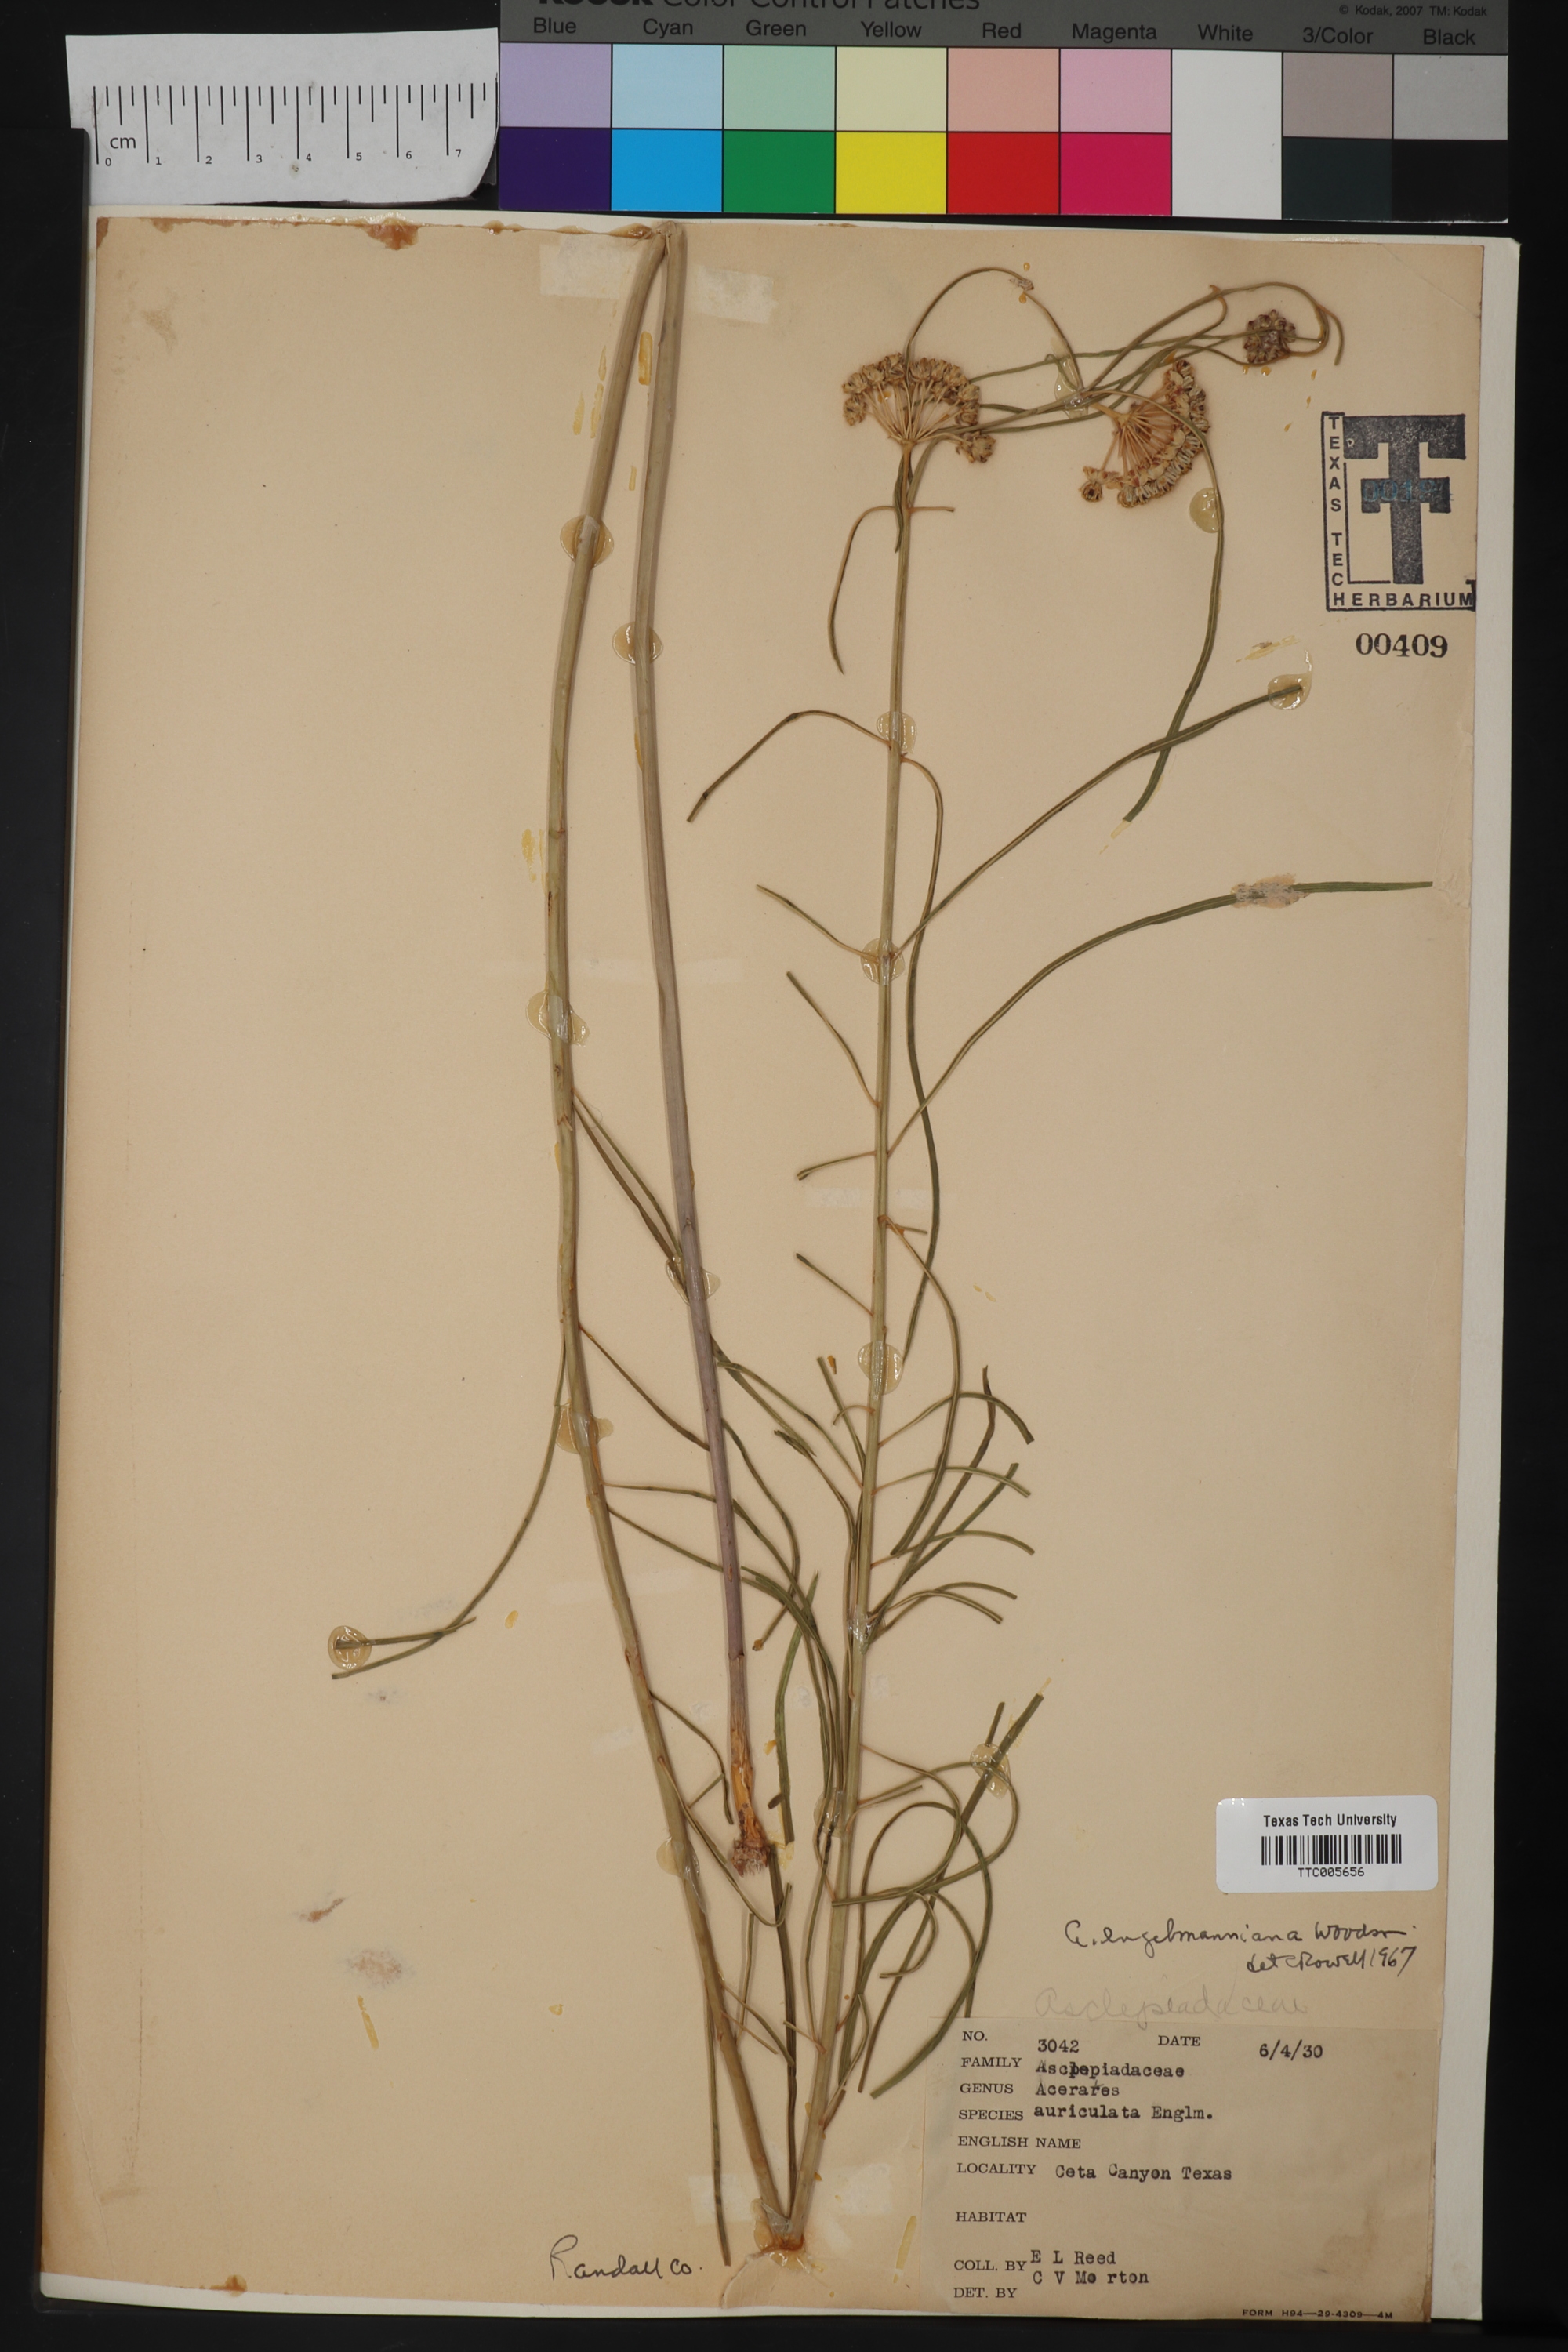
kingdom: Plantae
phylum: Tracheophyta
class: Magnoliopsida
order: Gentianales
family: Apocynaceae
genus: Asclepias
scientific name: Asclepias Acerates engelmanniana
